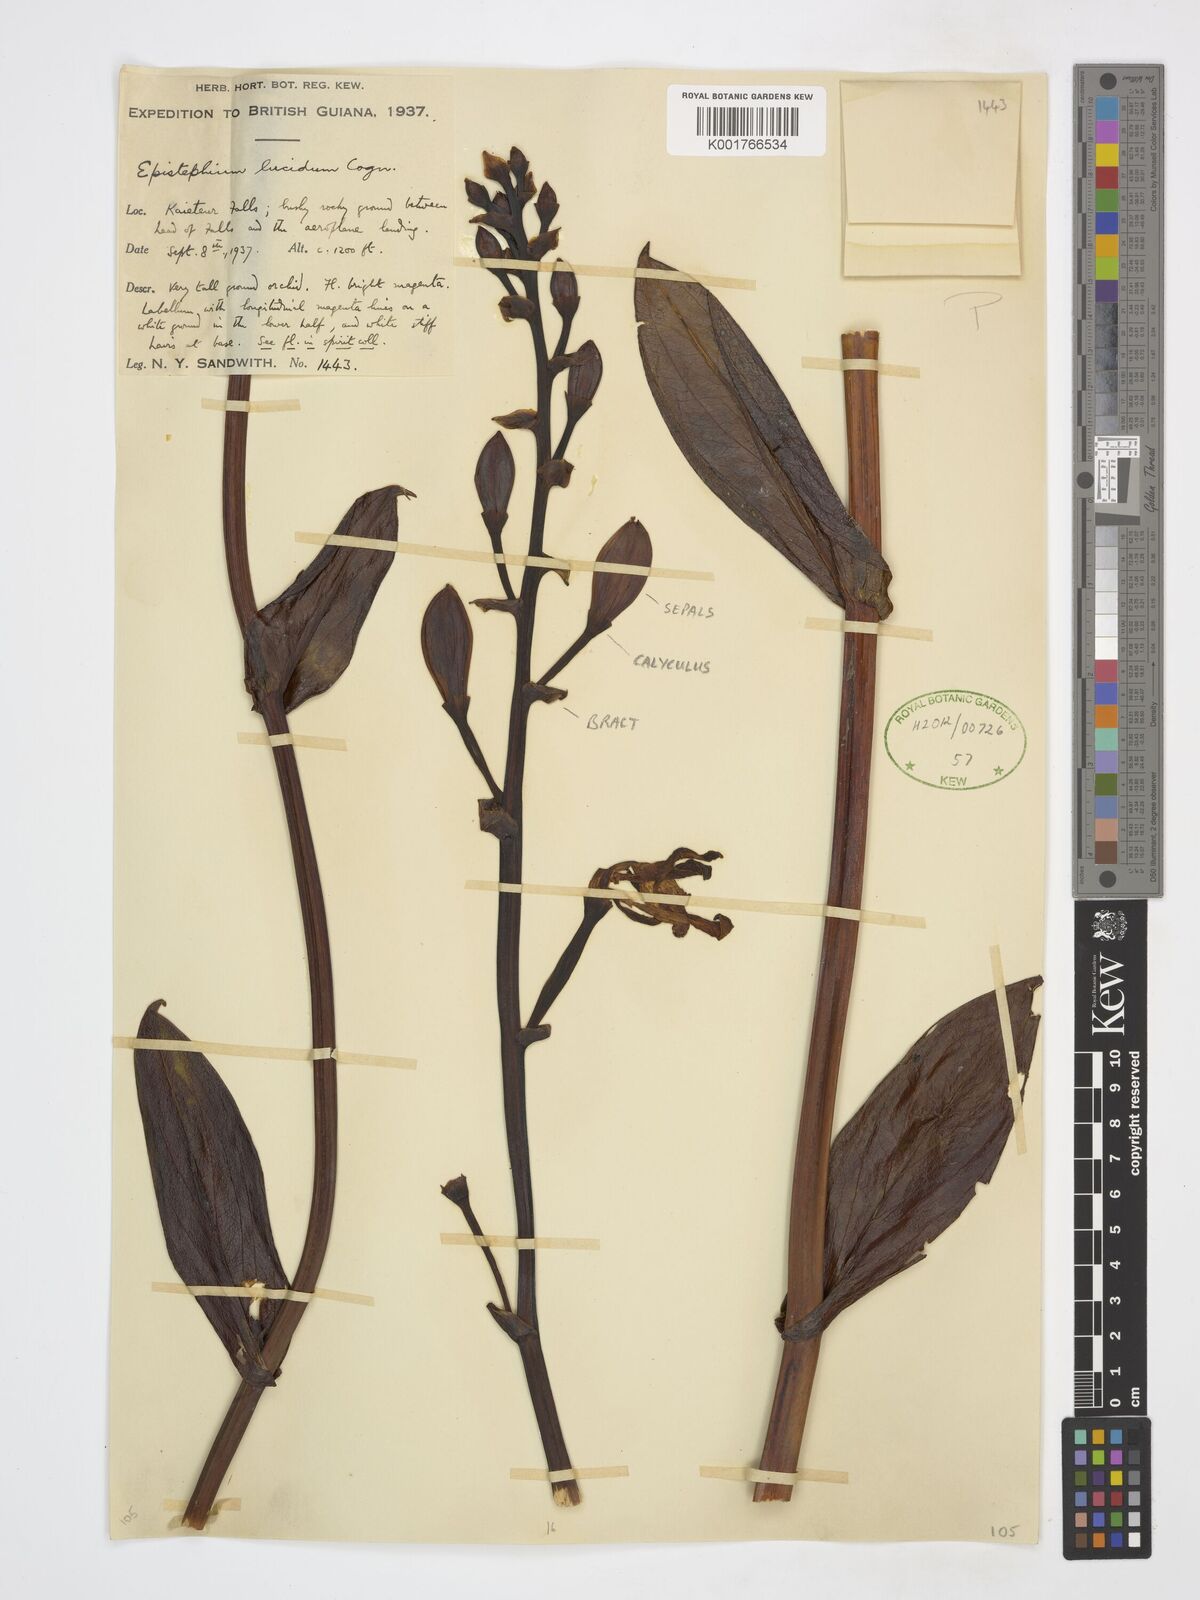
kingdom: Plantae
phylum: Tracheophyta
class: Liliopsida
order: Asparagales
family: Orchidaceae
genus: Epistephium
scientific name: Epistephium williamsii
